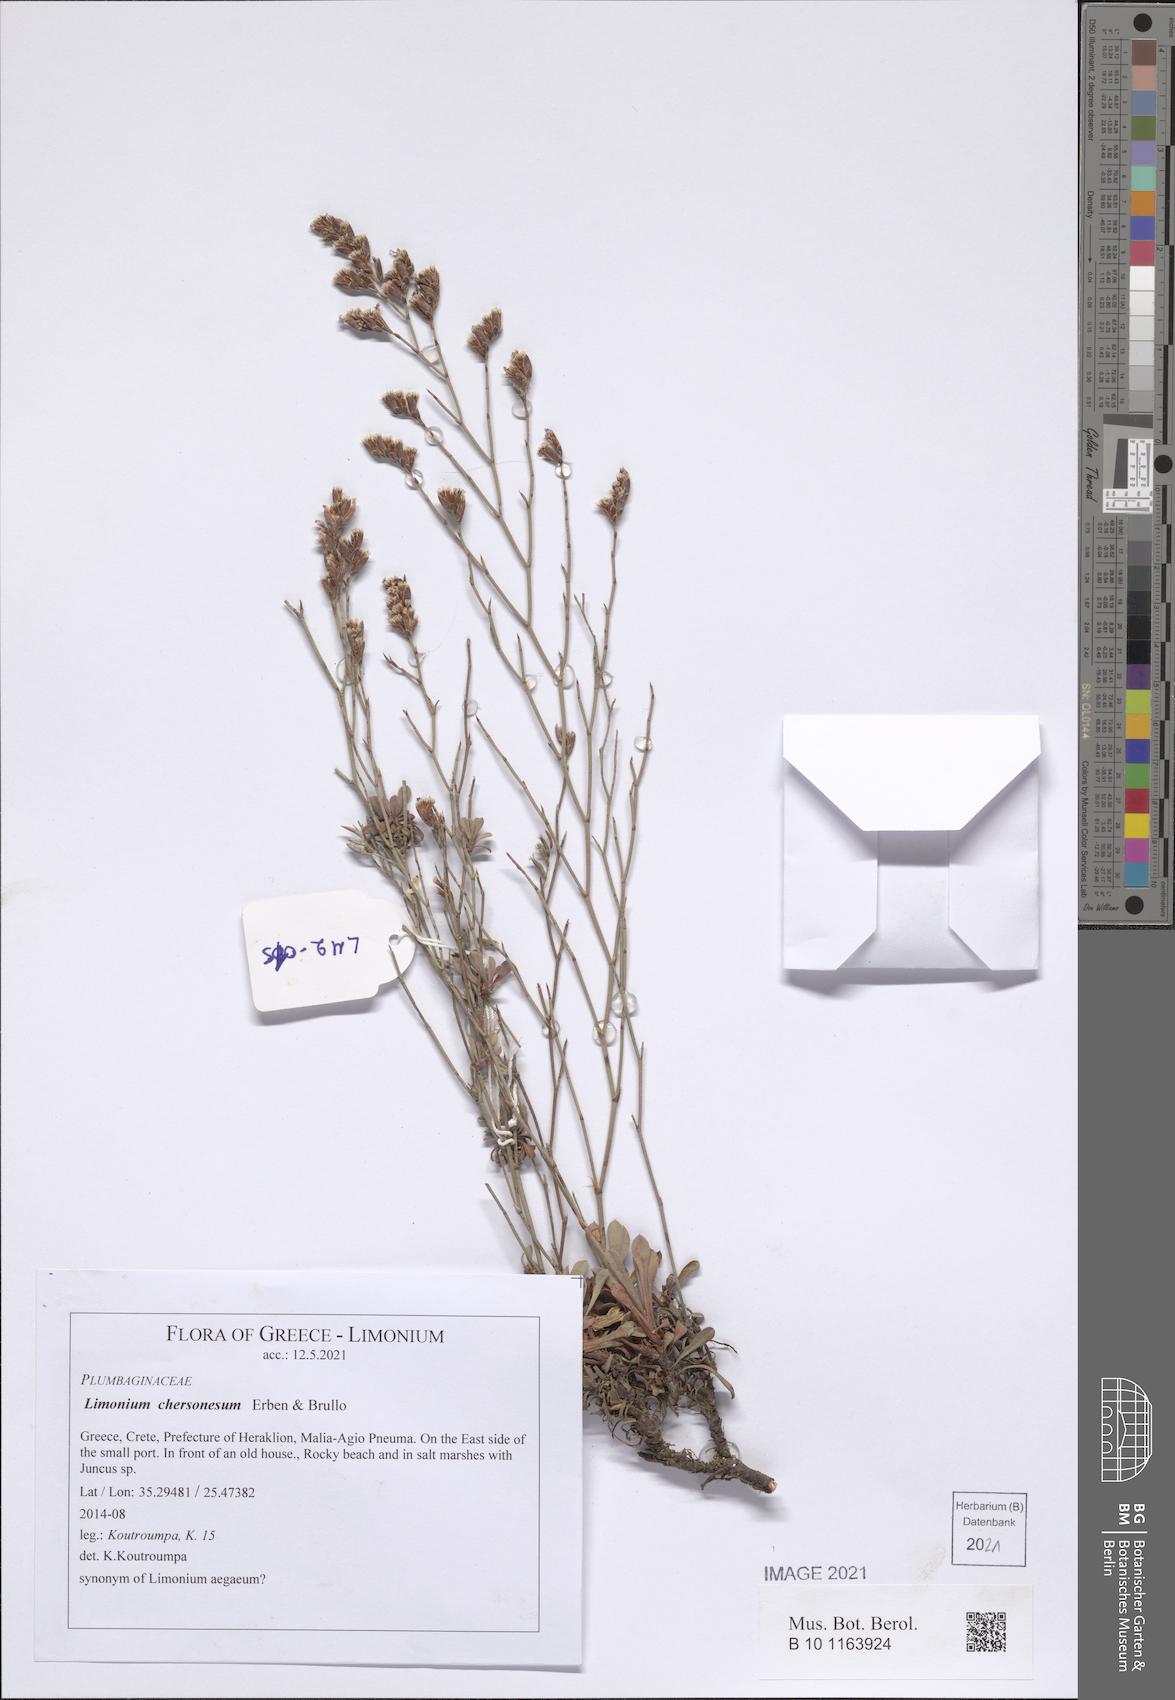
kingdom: Plantae
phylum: Tracheophyta
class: Magnoliopsida
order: Caryophyllales
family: Plumbaginaceae
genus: Limonium
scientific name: Limonium chersonesum
